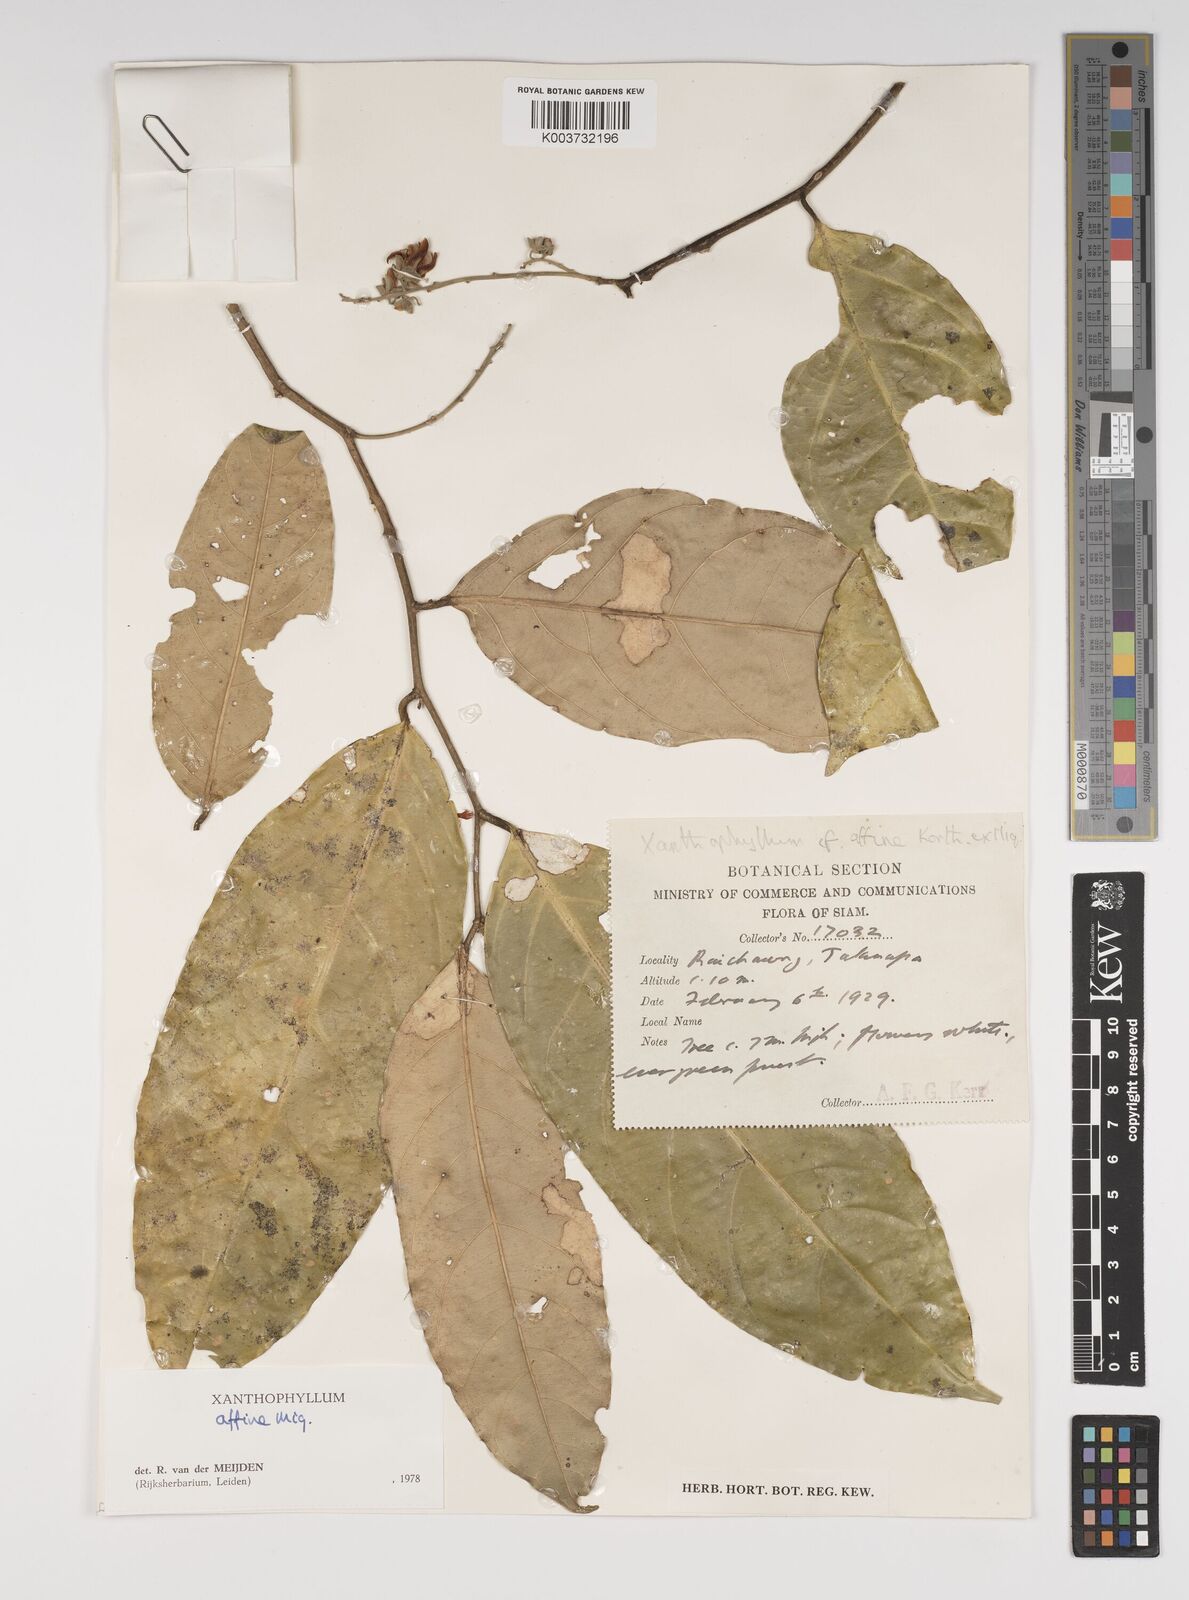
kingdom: Plantae
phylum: Tracheophyta
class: Magnoliopsida
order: Fabales
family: Polygalaceae
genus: Xanthophyllum
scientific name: Xanthophyllum flavescens
